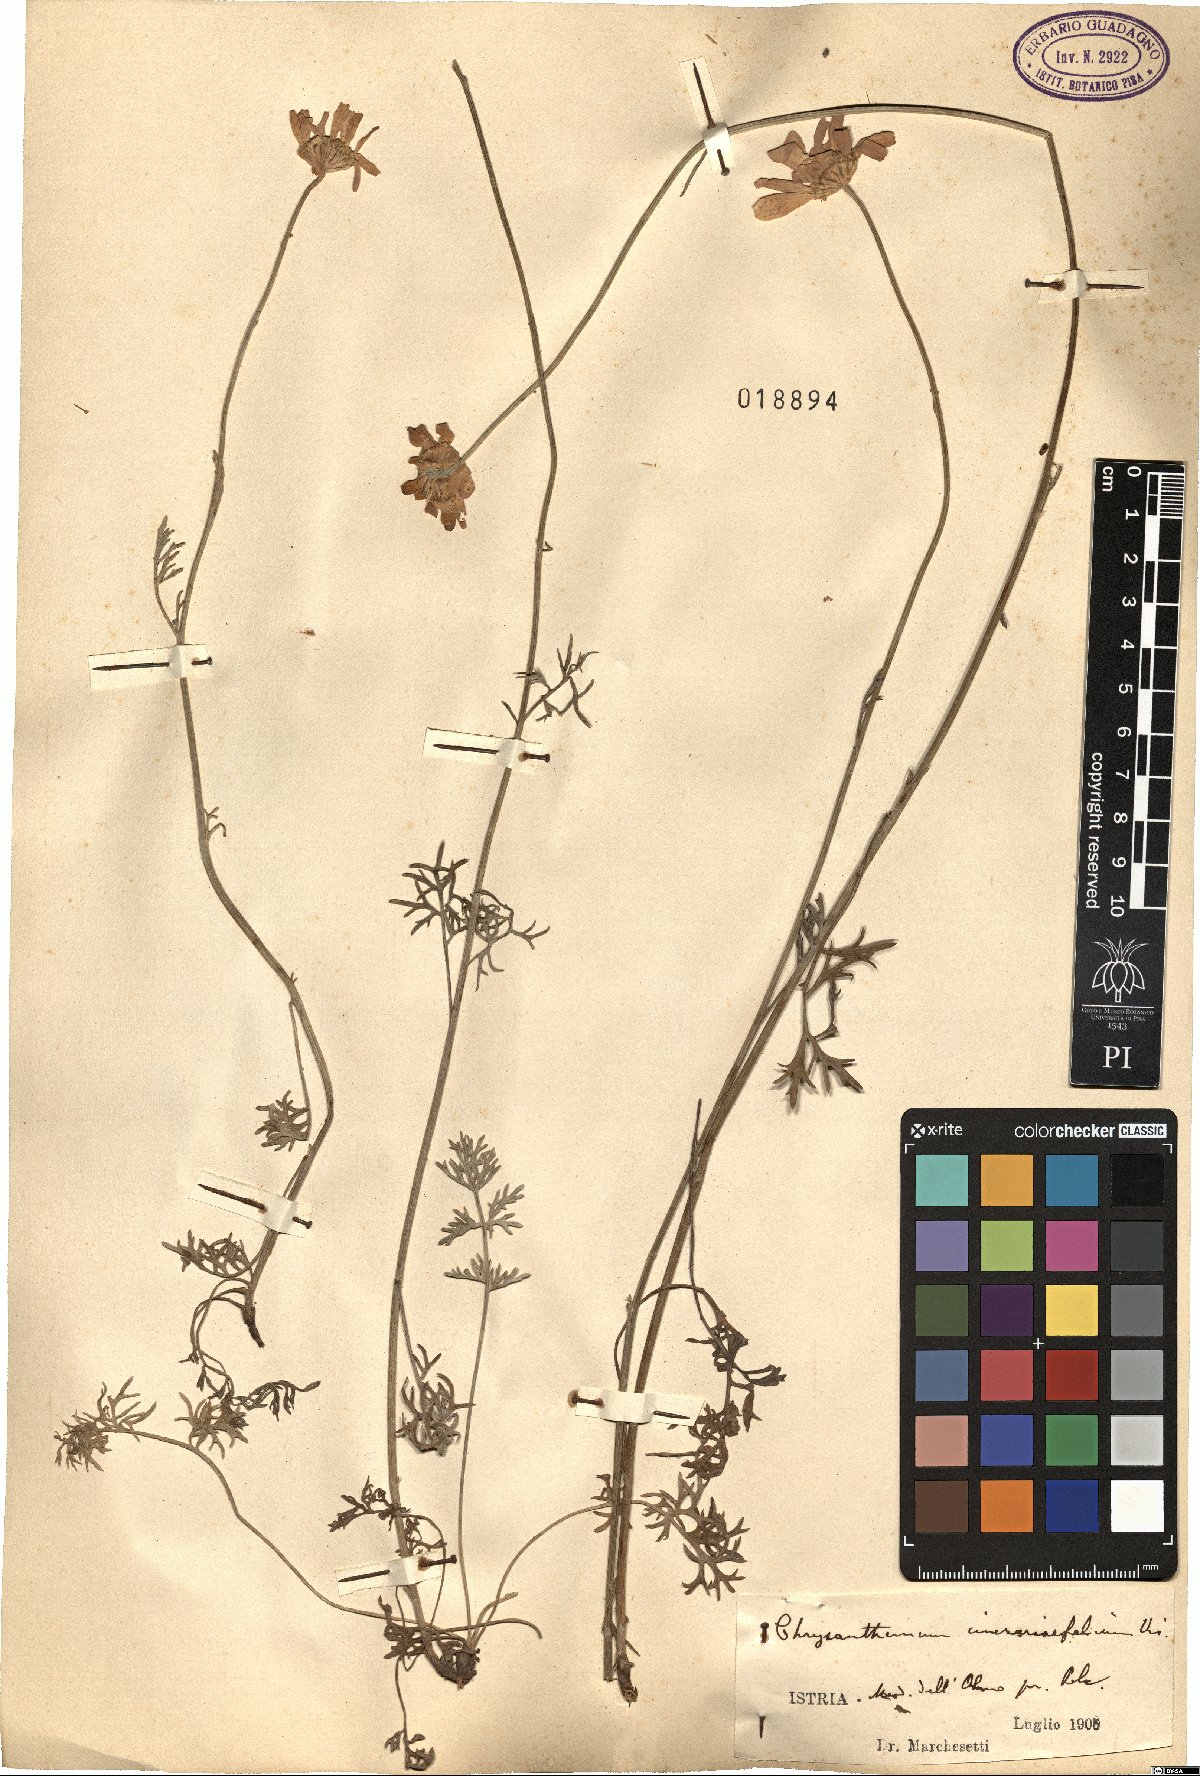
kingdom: Plantae
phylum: Tracheophyta
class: Magnoliopsida
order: Asterales
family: Asteraceae
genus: Tanacetum
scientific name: Tanacetum cinerariifolium
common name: Dalmatian pyrethrum
